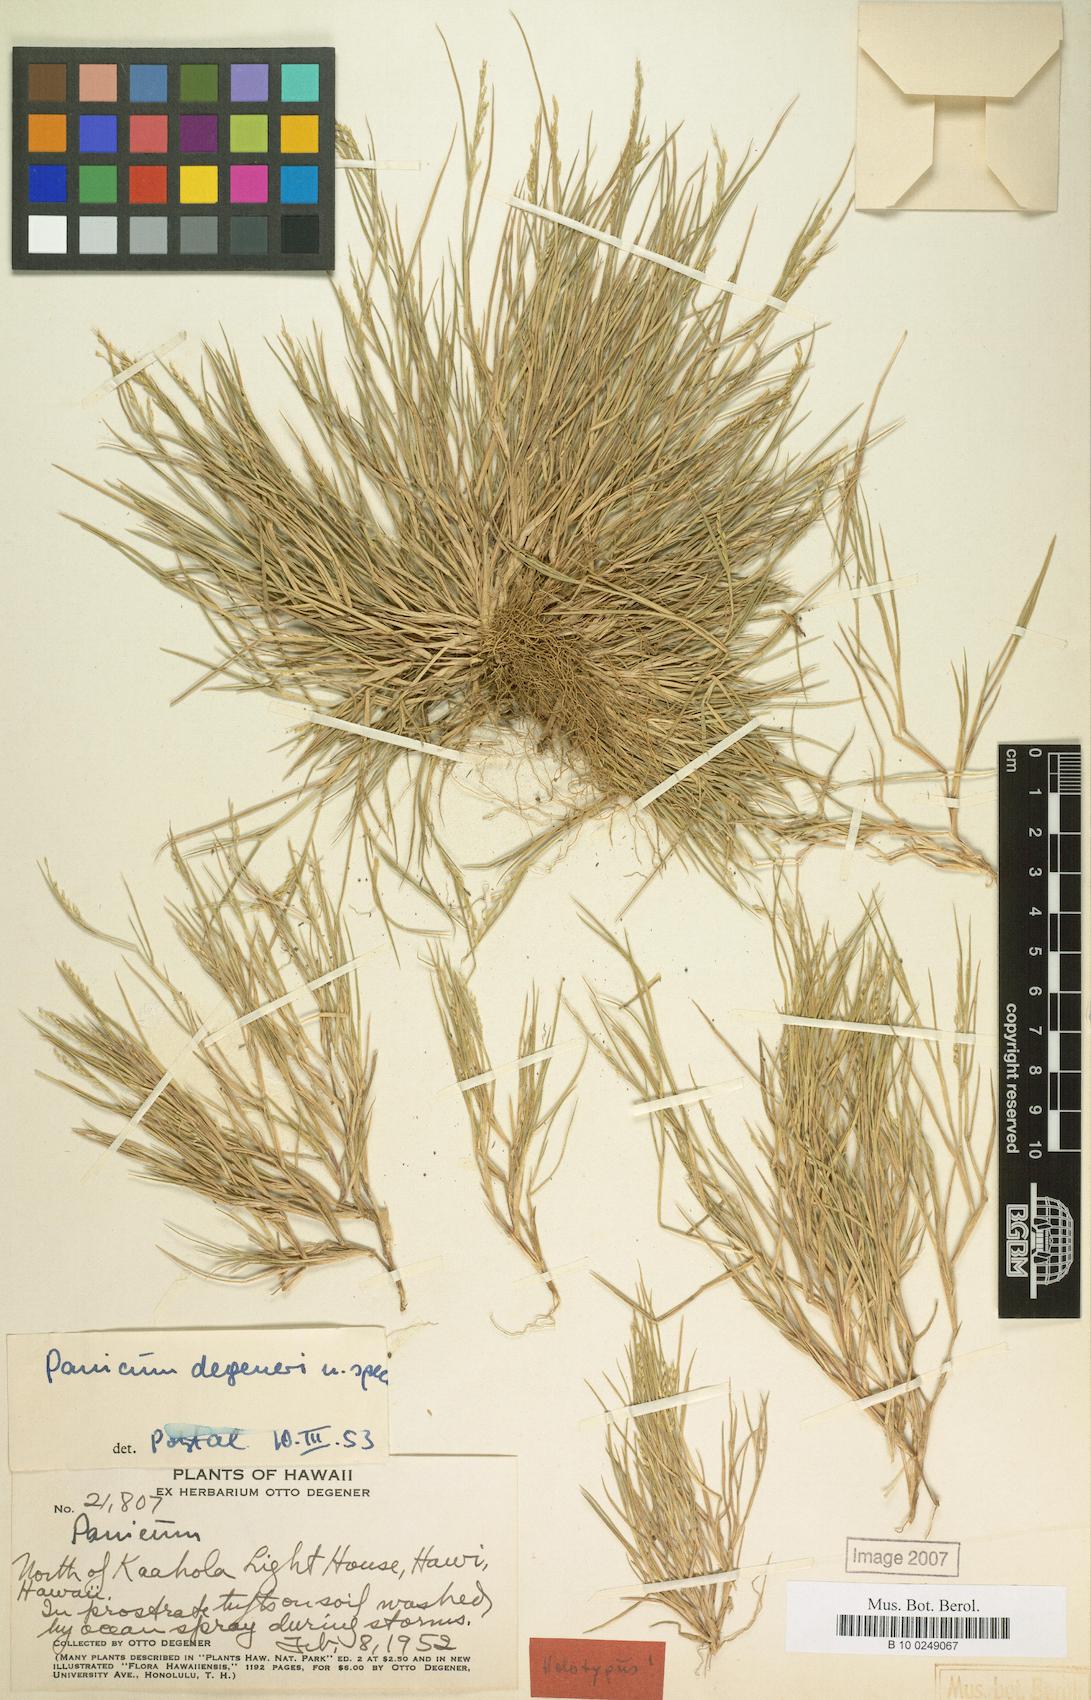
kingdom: Plantae
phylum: Tracheophyta
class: Liliopsida
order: Poales
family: Poaceae
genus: Panicum
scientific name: Panicum fauriei
